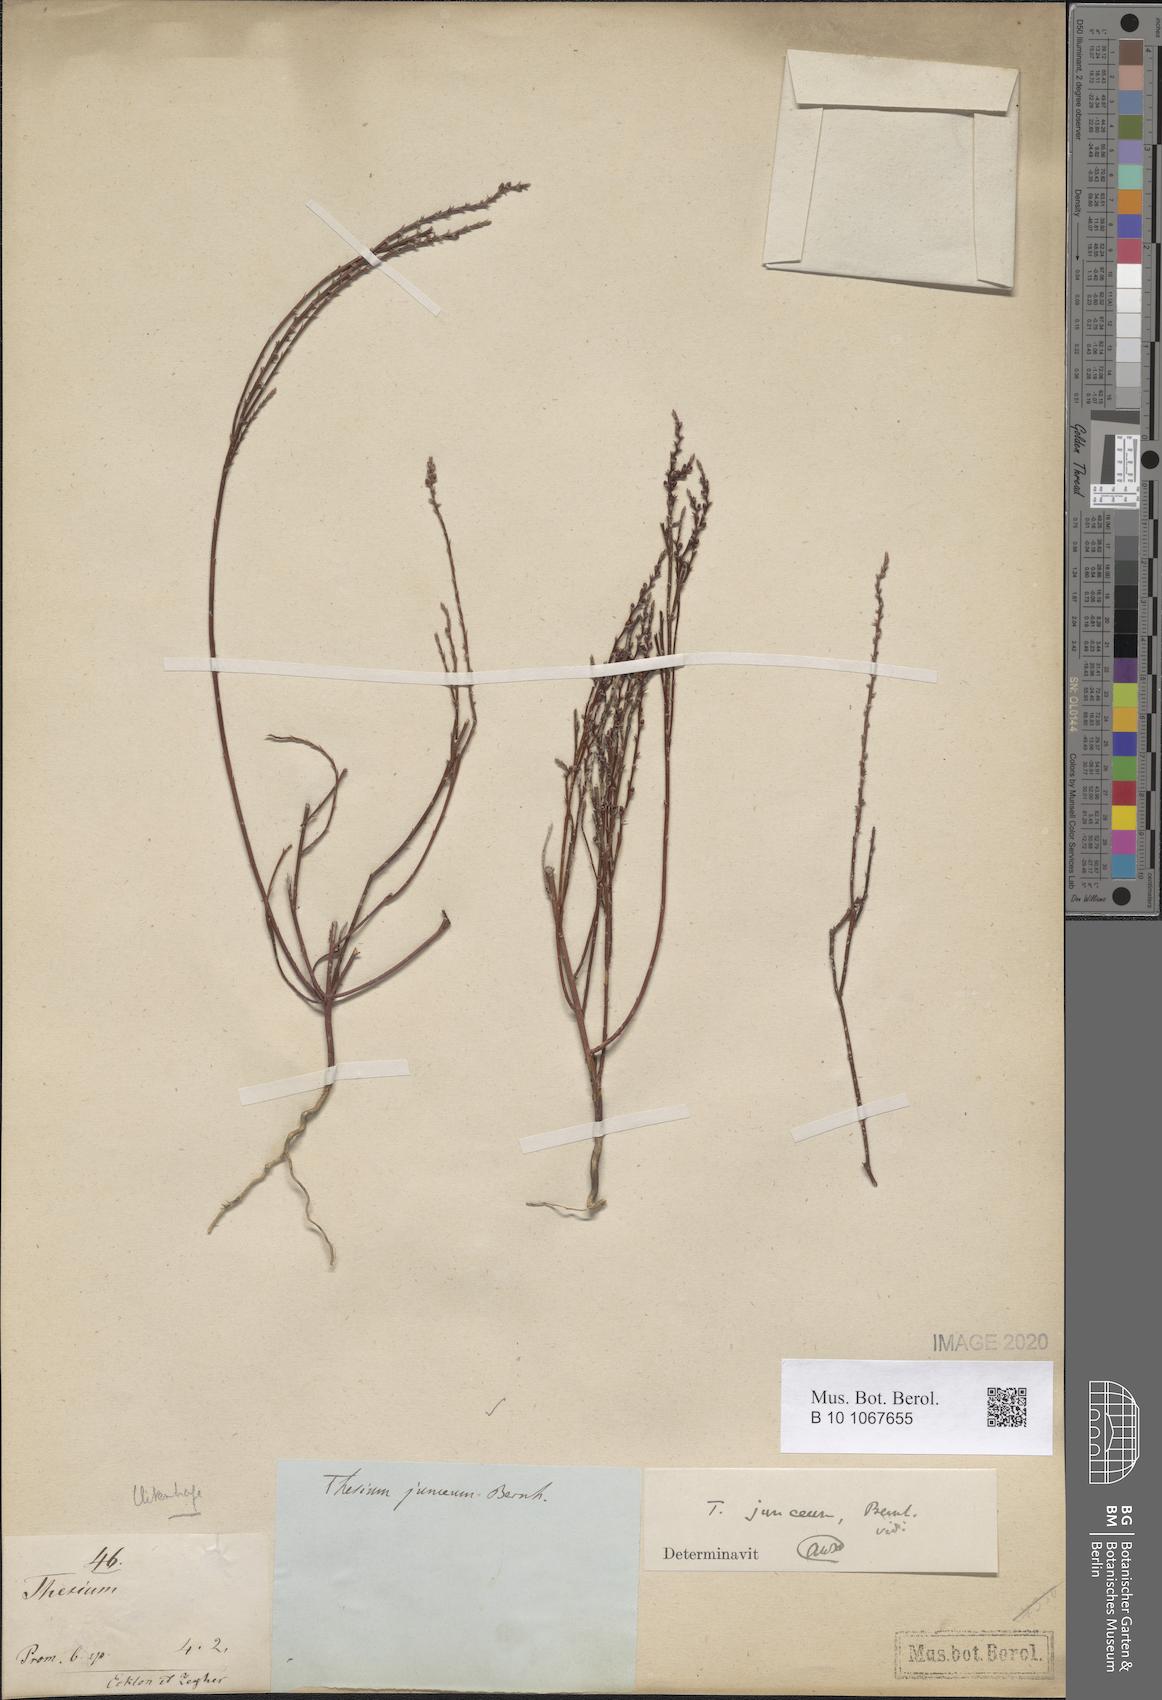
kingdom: Plantae
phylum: Tracheophyta
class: Magnoliopsida
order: Santalales
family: Thesiaceae
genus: Thesium
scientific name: Thesium junceum
